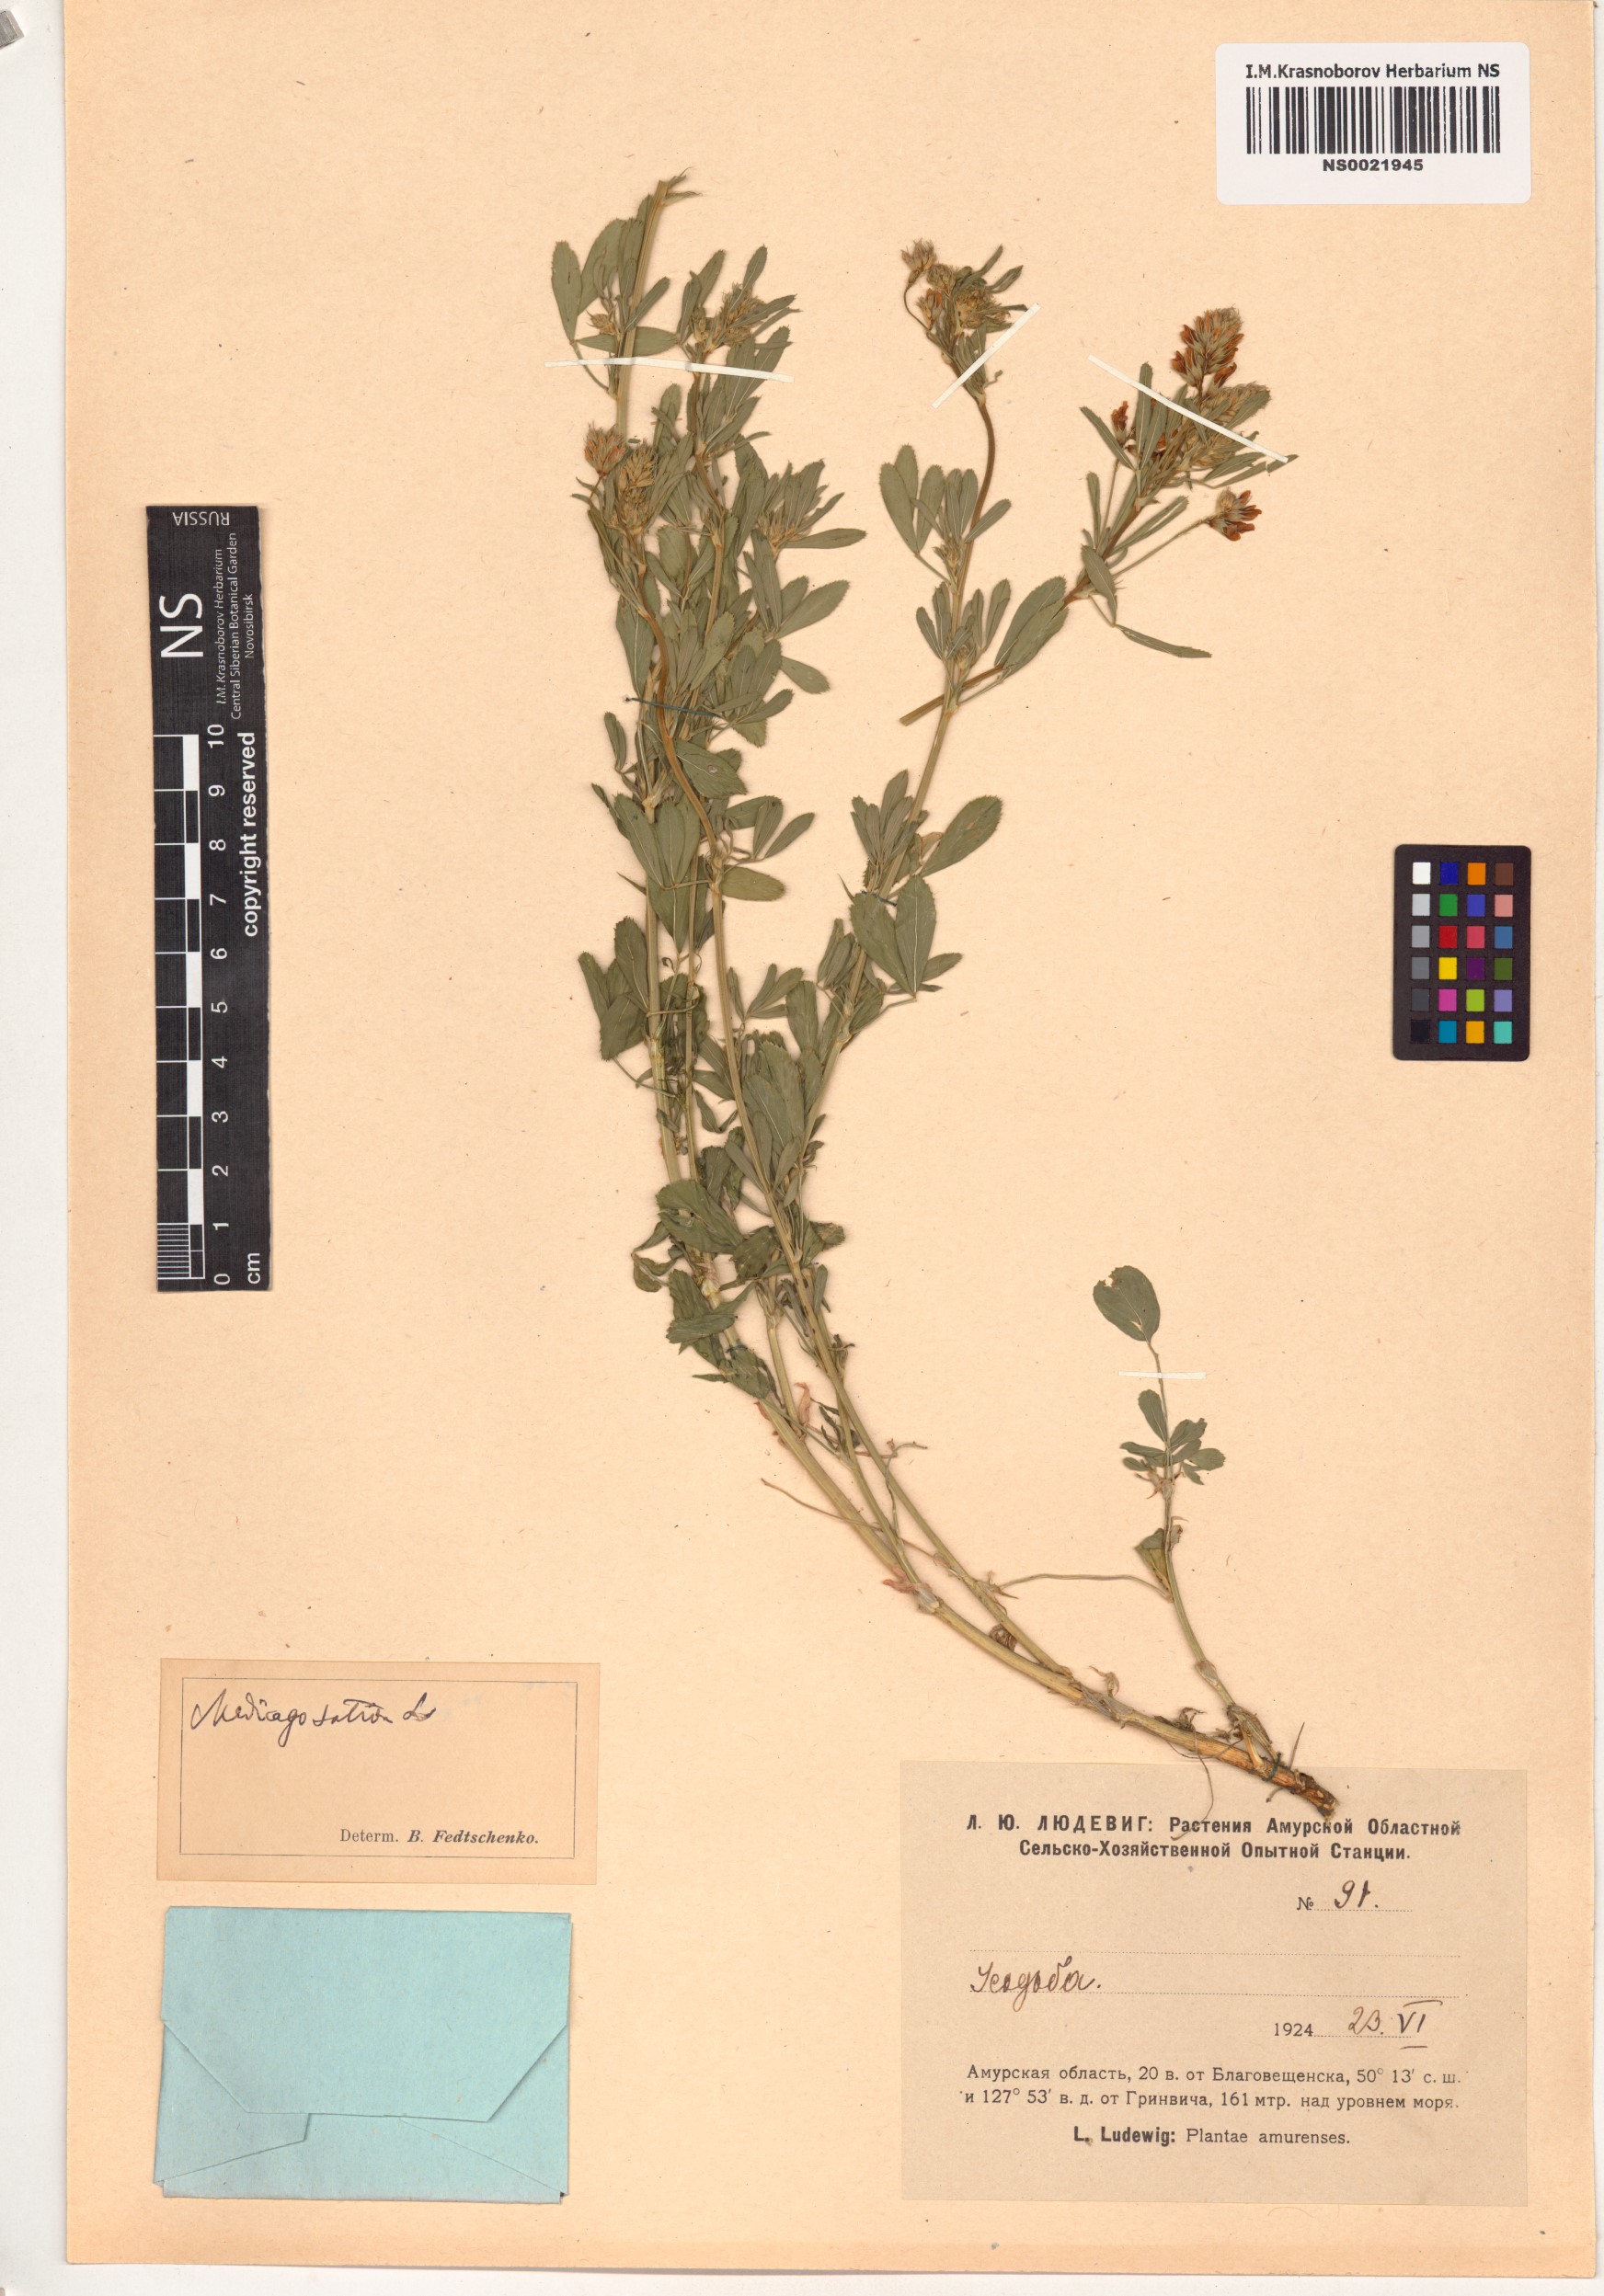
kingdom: Plantae
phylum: Tracheophyta
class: Magnoliopsida
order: Fabales
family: Fabaceae
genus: Medicago
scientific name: Medicago sativa
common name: Alfalfa
